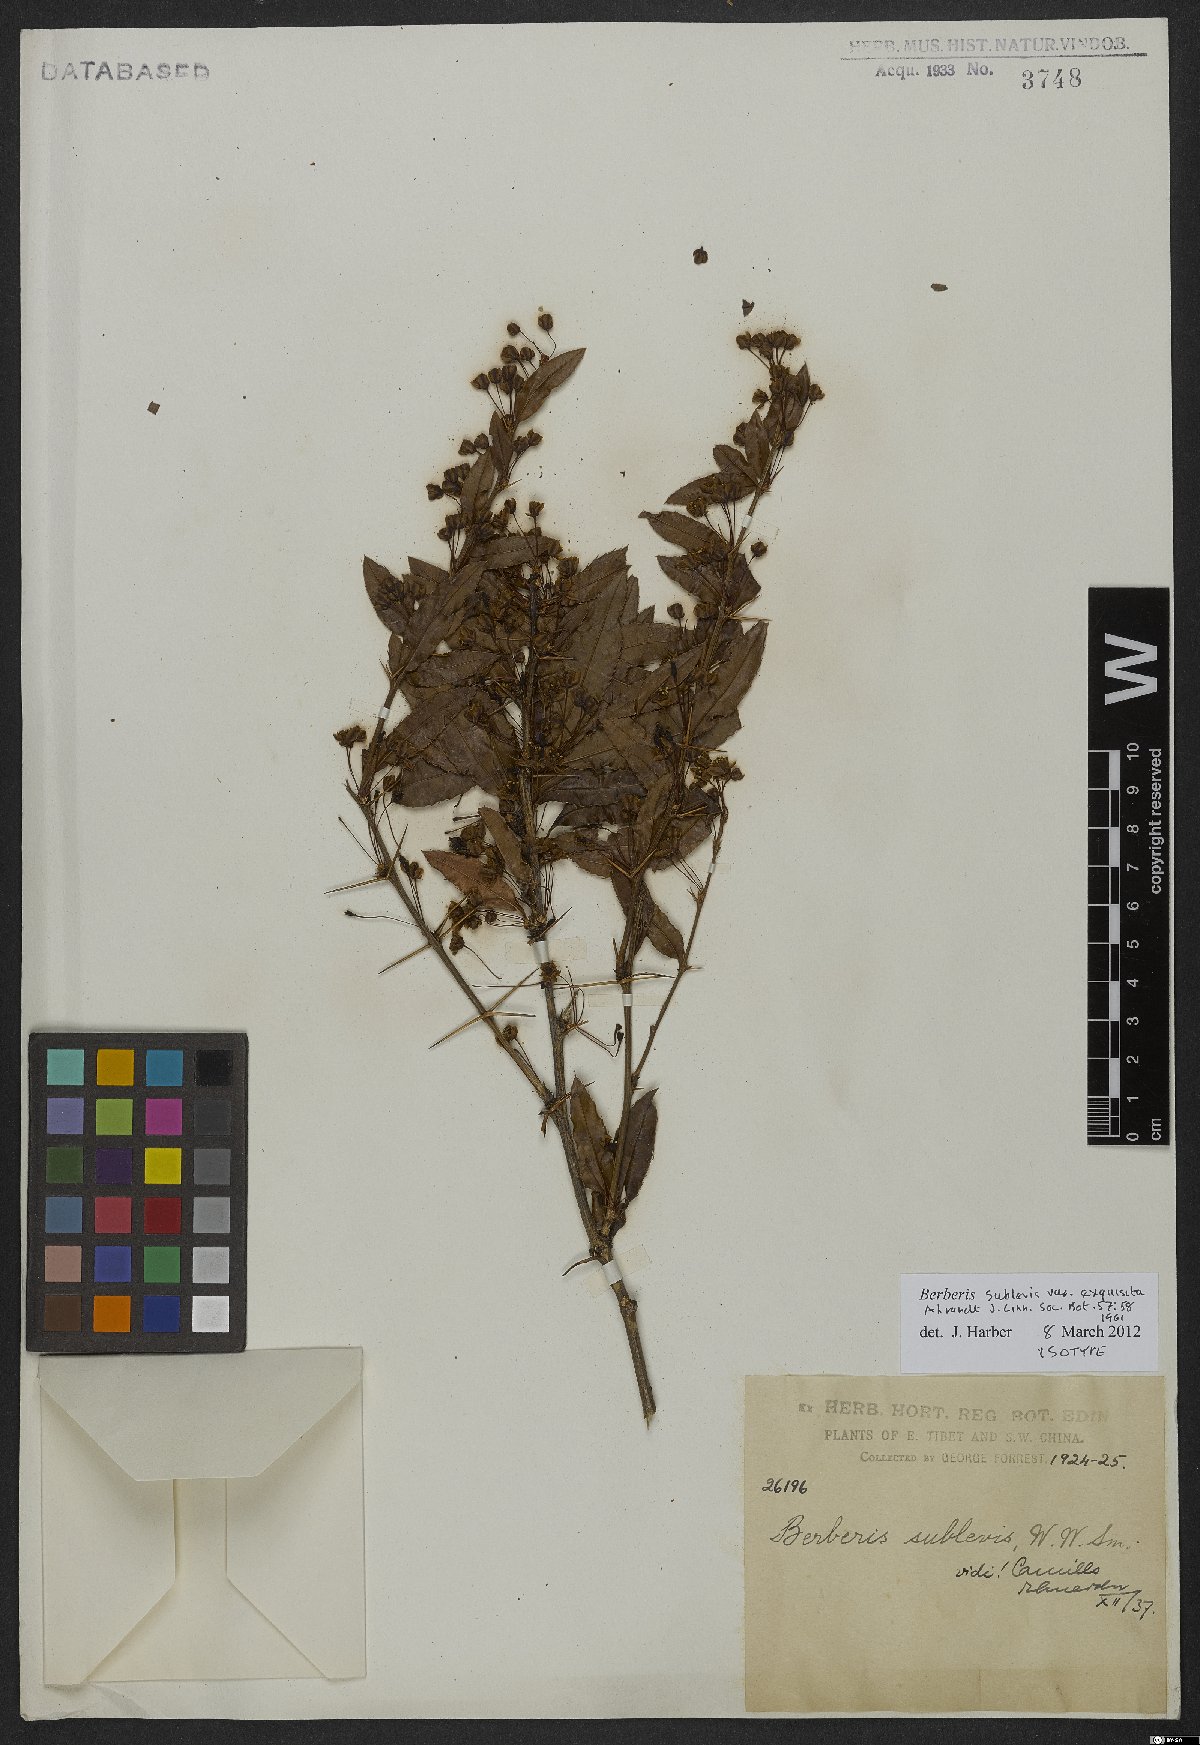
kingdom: Plantae
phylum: Tracheophyta
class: Magnoliopsida
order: Ranunculales
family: Berberidaceae
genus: Berberis
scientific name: Berberis sublevis
